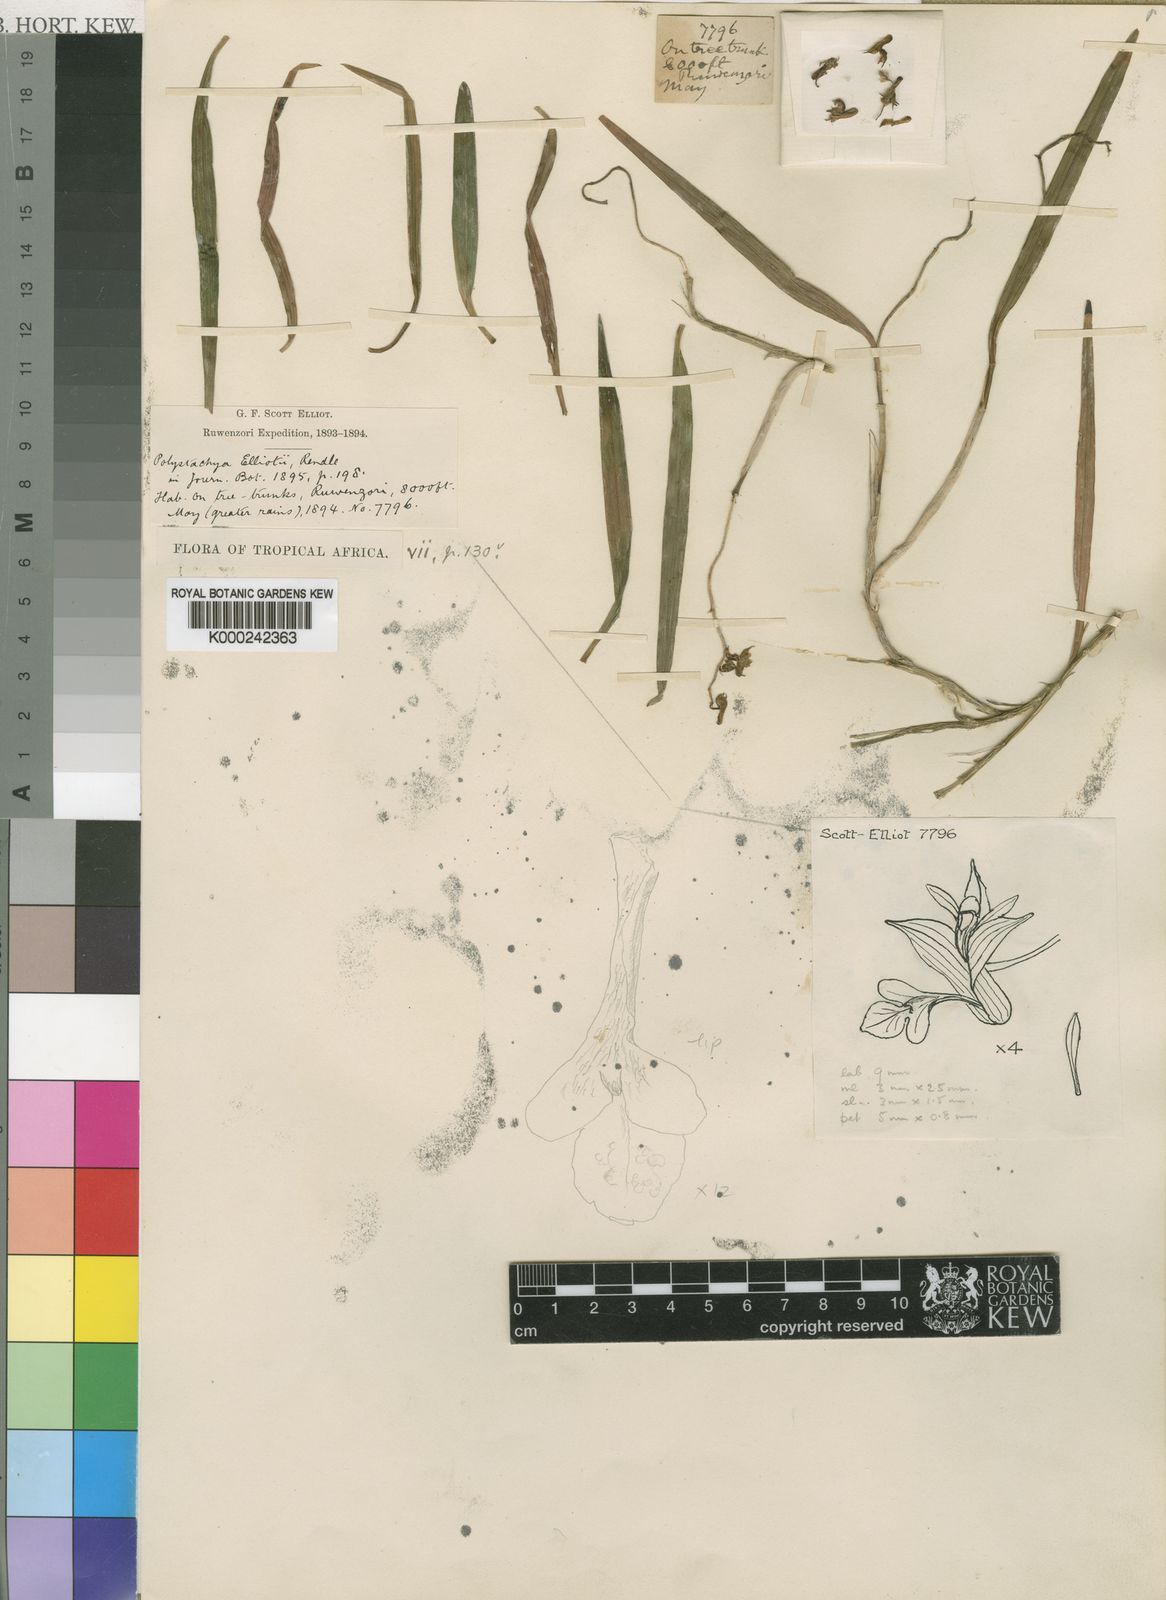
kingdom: Plantae
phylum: Tracheophyta
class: Liliopsida
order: Asparagales
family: Orchidaceae
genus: Polystachya
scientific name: Polystachya
